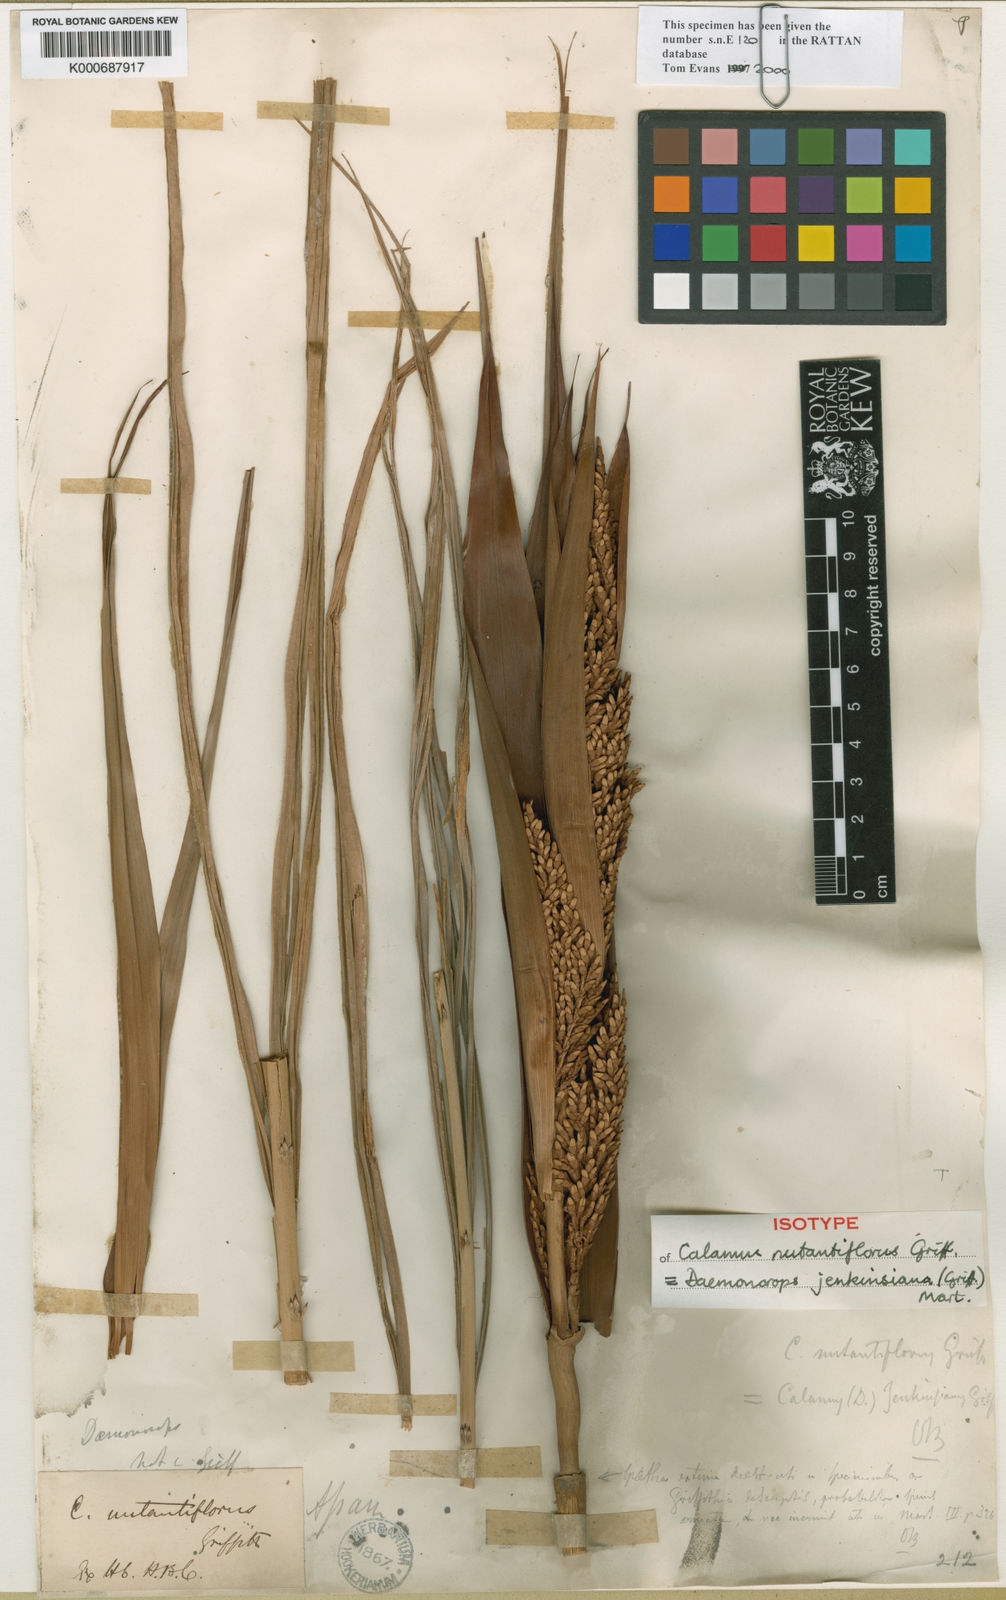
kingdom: Plantae
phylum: Tracheophyta
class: Liliopsida
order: Arecales
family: Arecaceae
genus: Calamus
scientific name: Calamus melanochaetes
